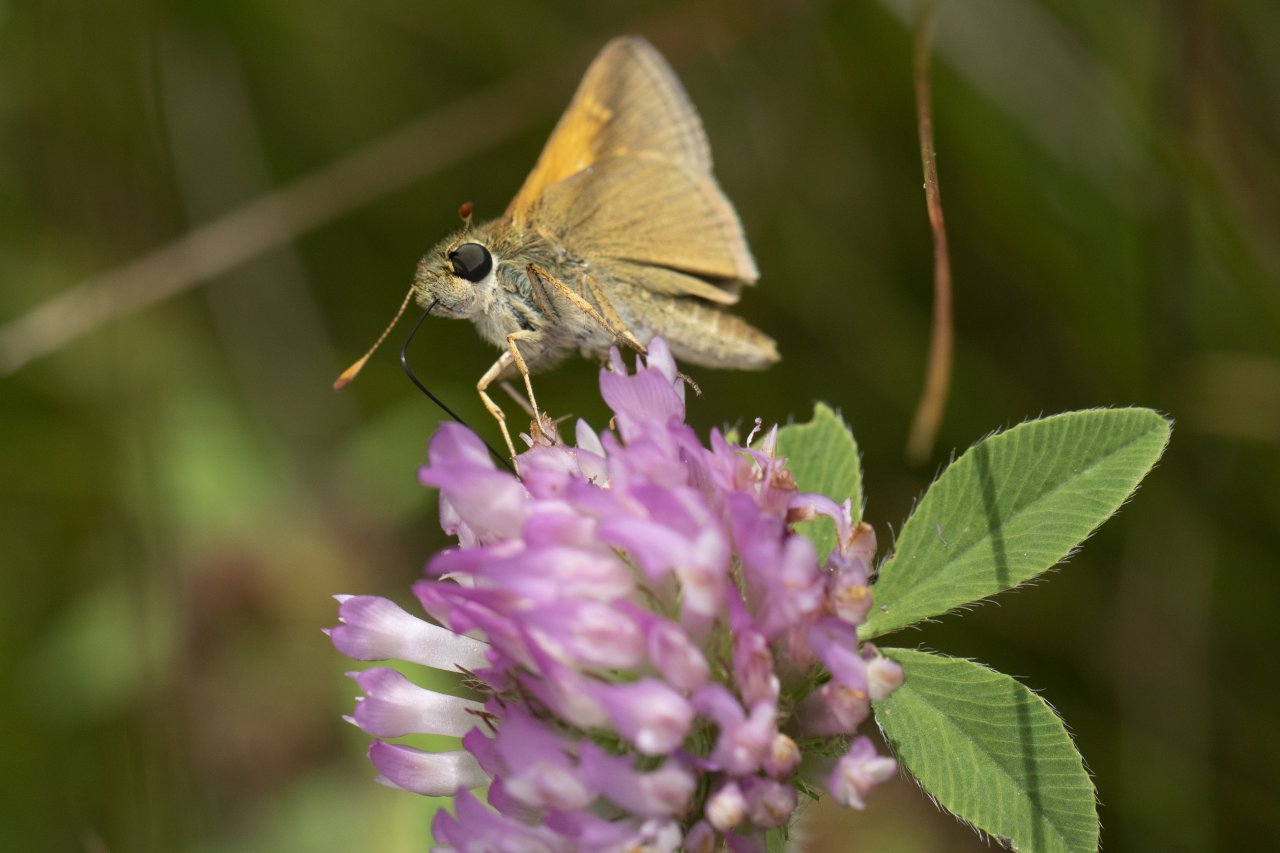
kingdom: Animalia
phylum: Arthropoda
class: Insecta
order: Lepidoptera
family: Hesperiidae
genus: Polites
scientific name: Polites themistocles
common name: Tawny-edged Skipper
